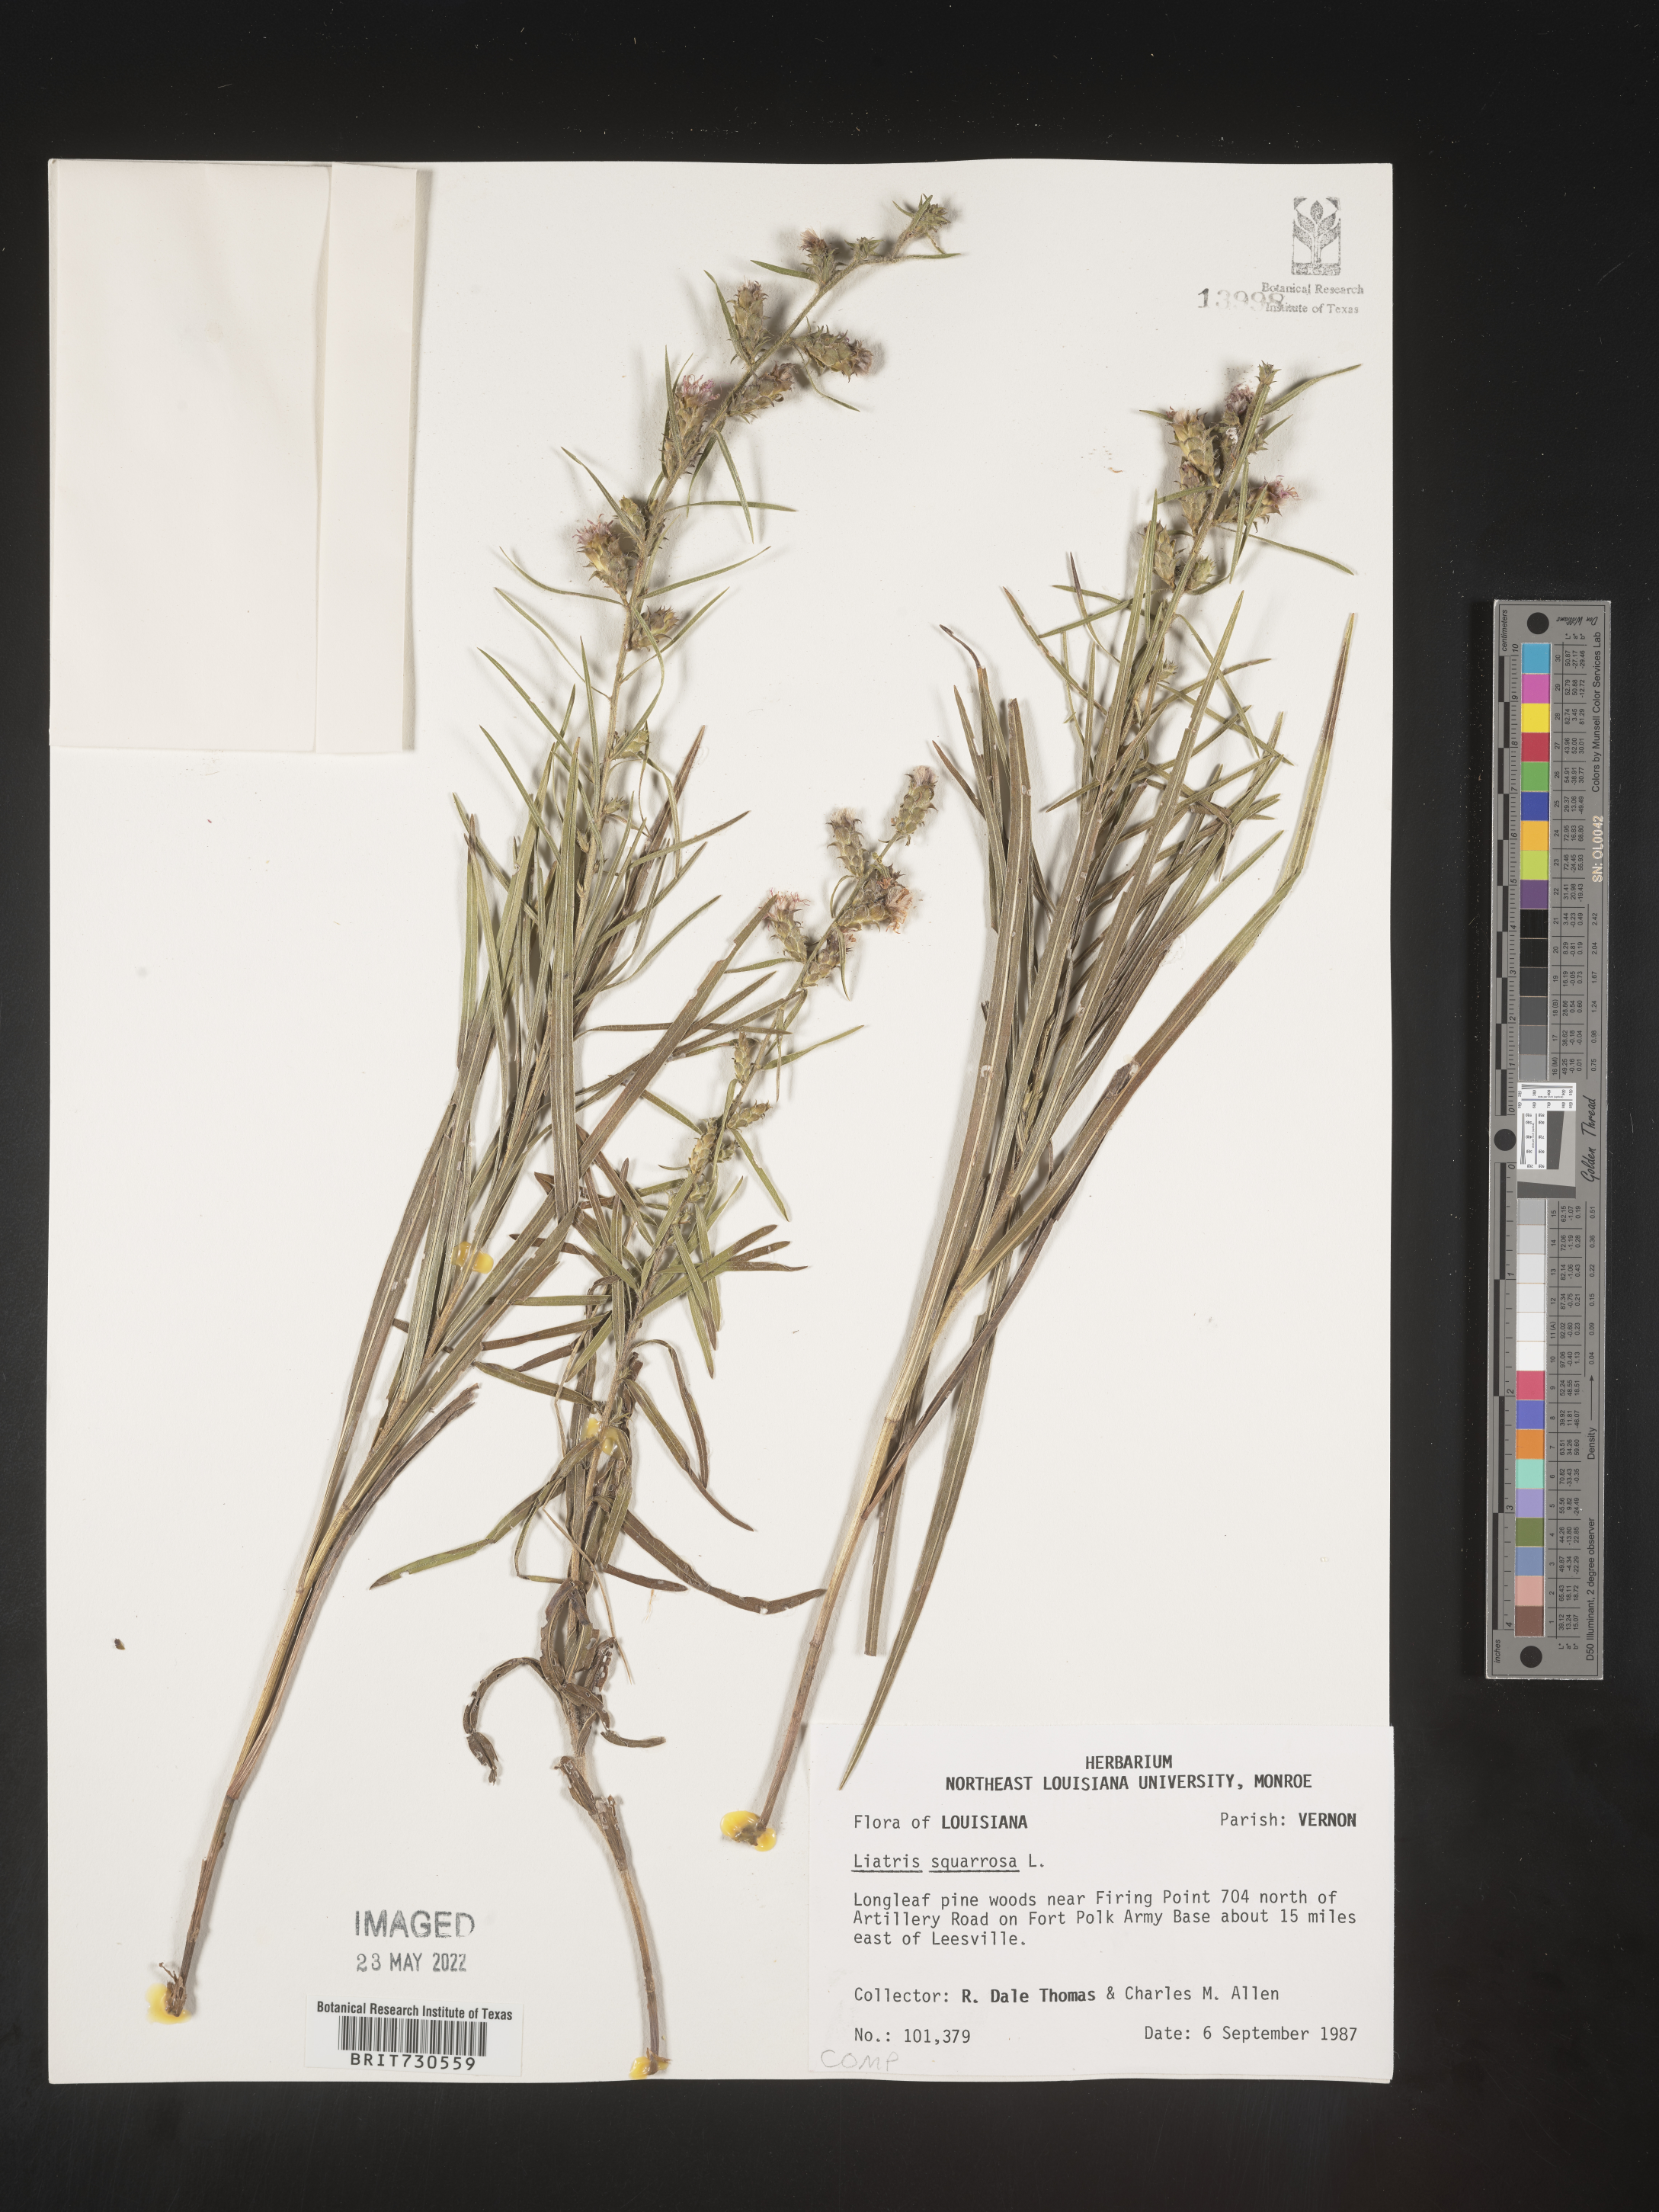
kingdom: Plantae
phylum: Tracheophyta
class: Magnoliopsida
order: Asterales
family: Asteraceae
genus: Liatris
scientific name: Liatris hirsuta
